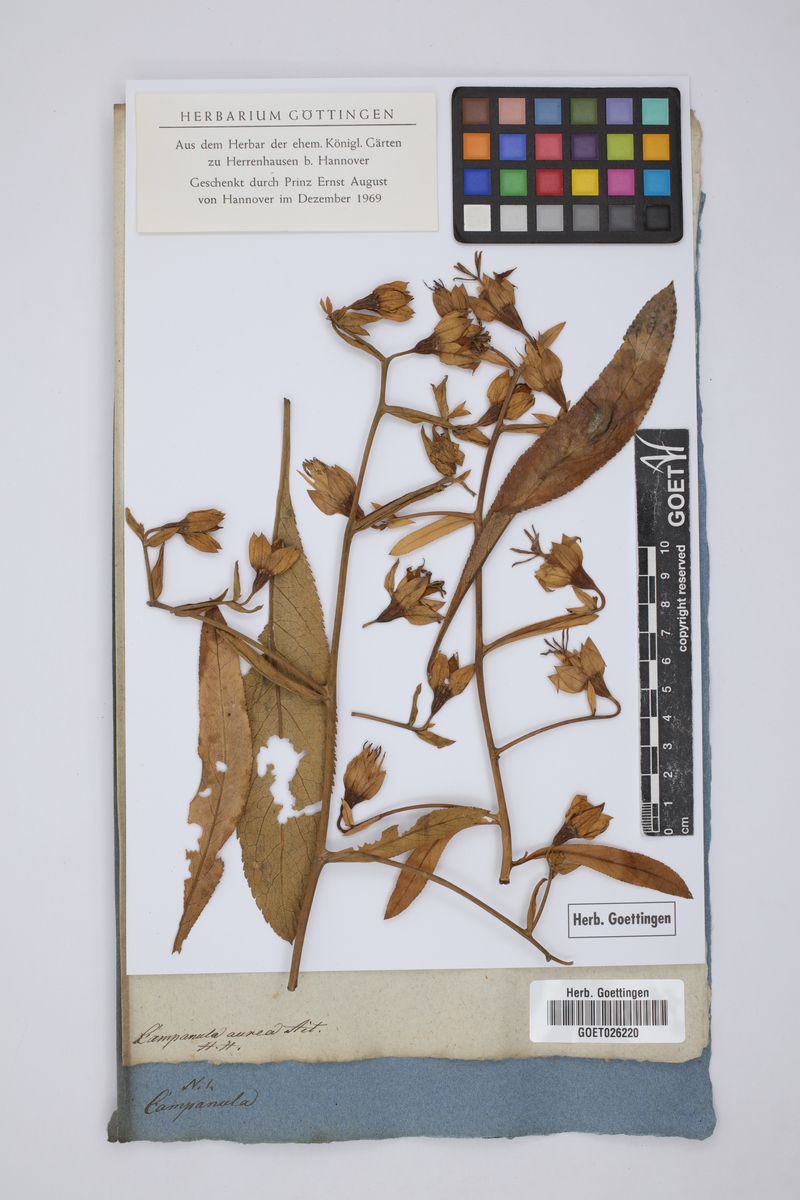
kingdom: Plantae
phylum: Tracheophyta
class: Magnoliopsida
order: Asterales
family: Campanulaceae
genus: Musschia
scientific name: Musschia aurea
